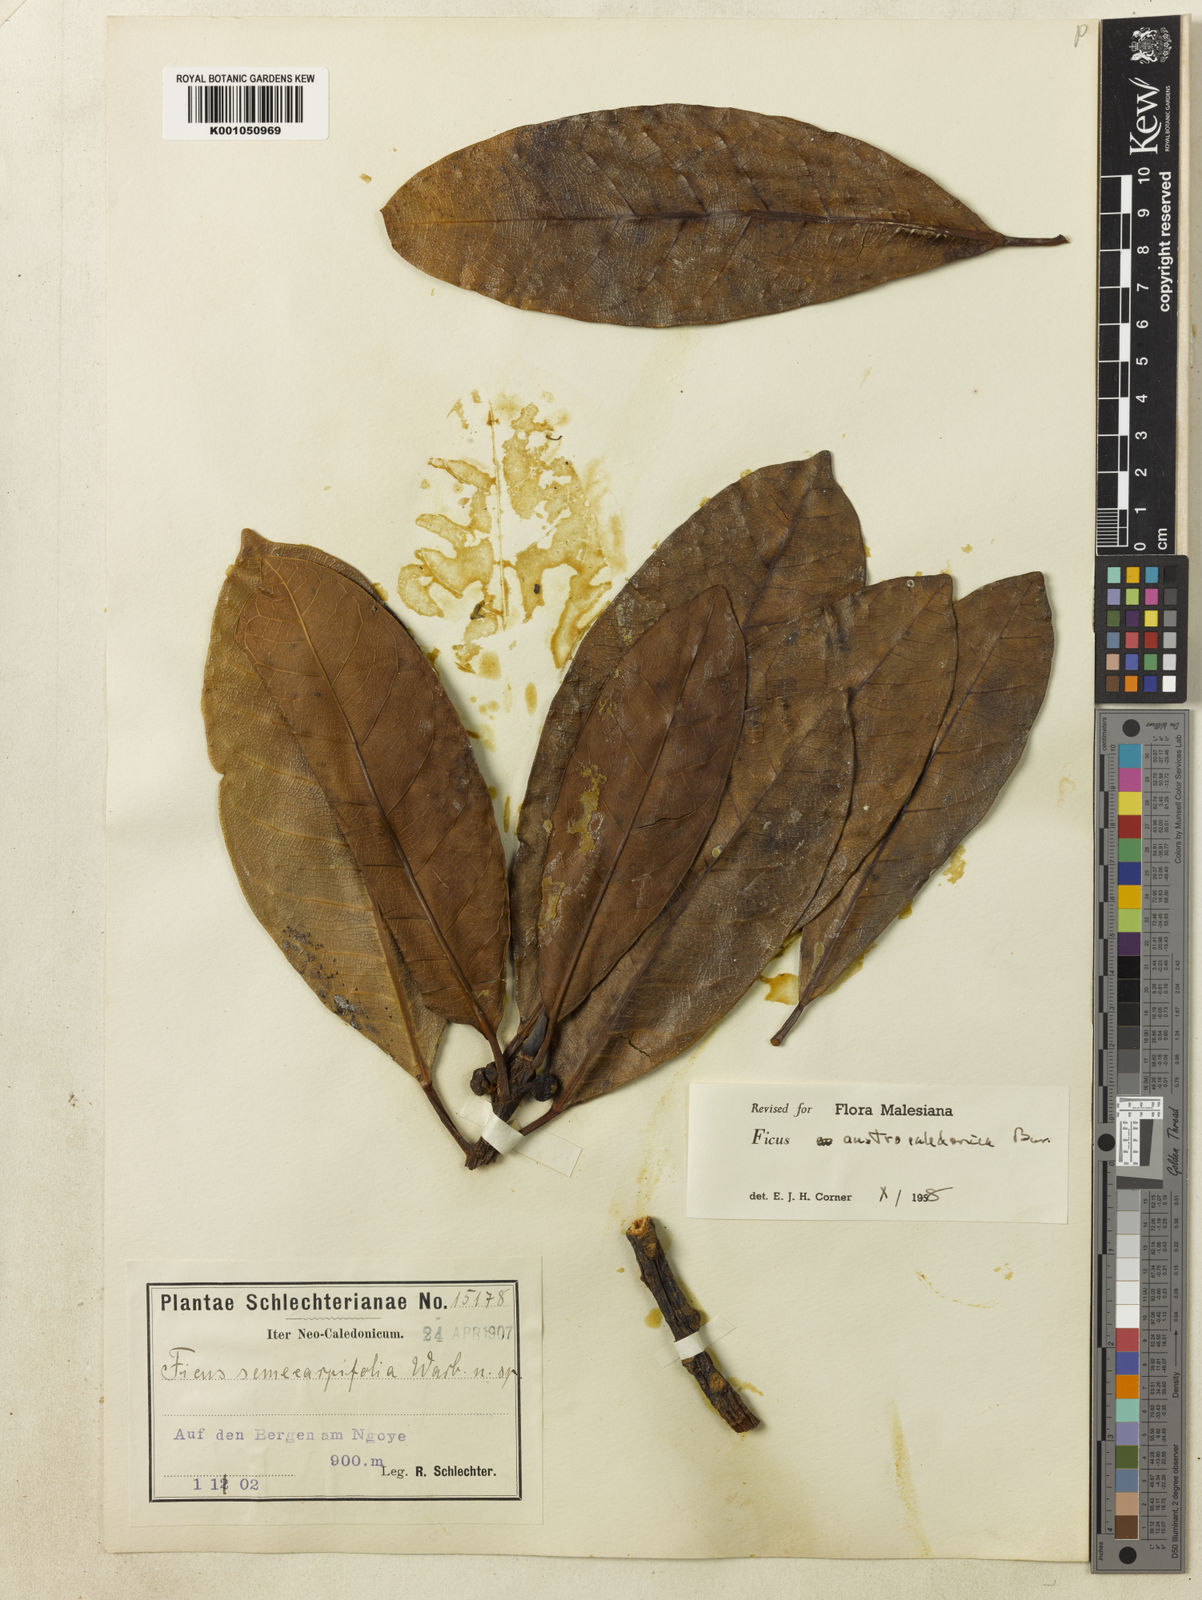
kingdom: Plantae
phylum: Tracheophyta
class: Magnoliopsida
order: Rosales
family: Moraceae
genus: Ficus
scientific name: Ficus austrocaledonica
